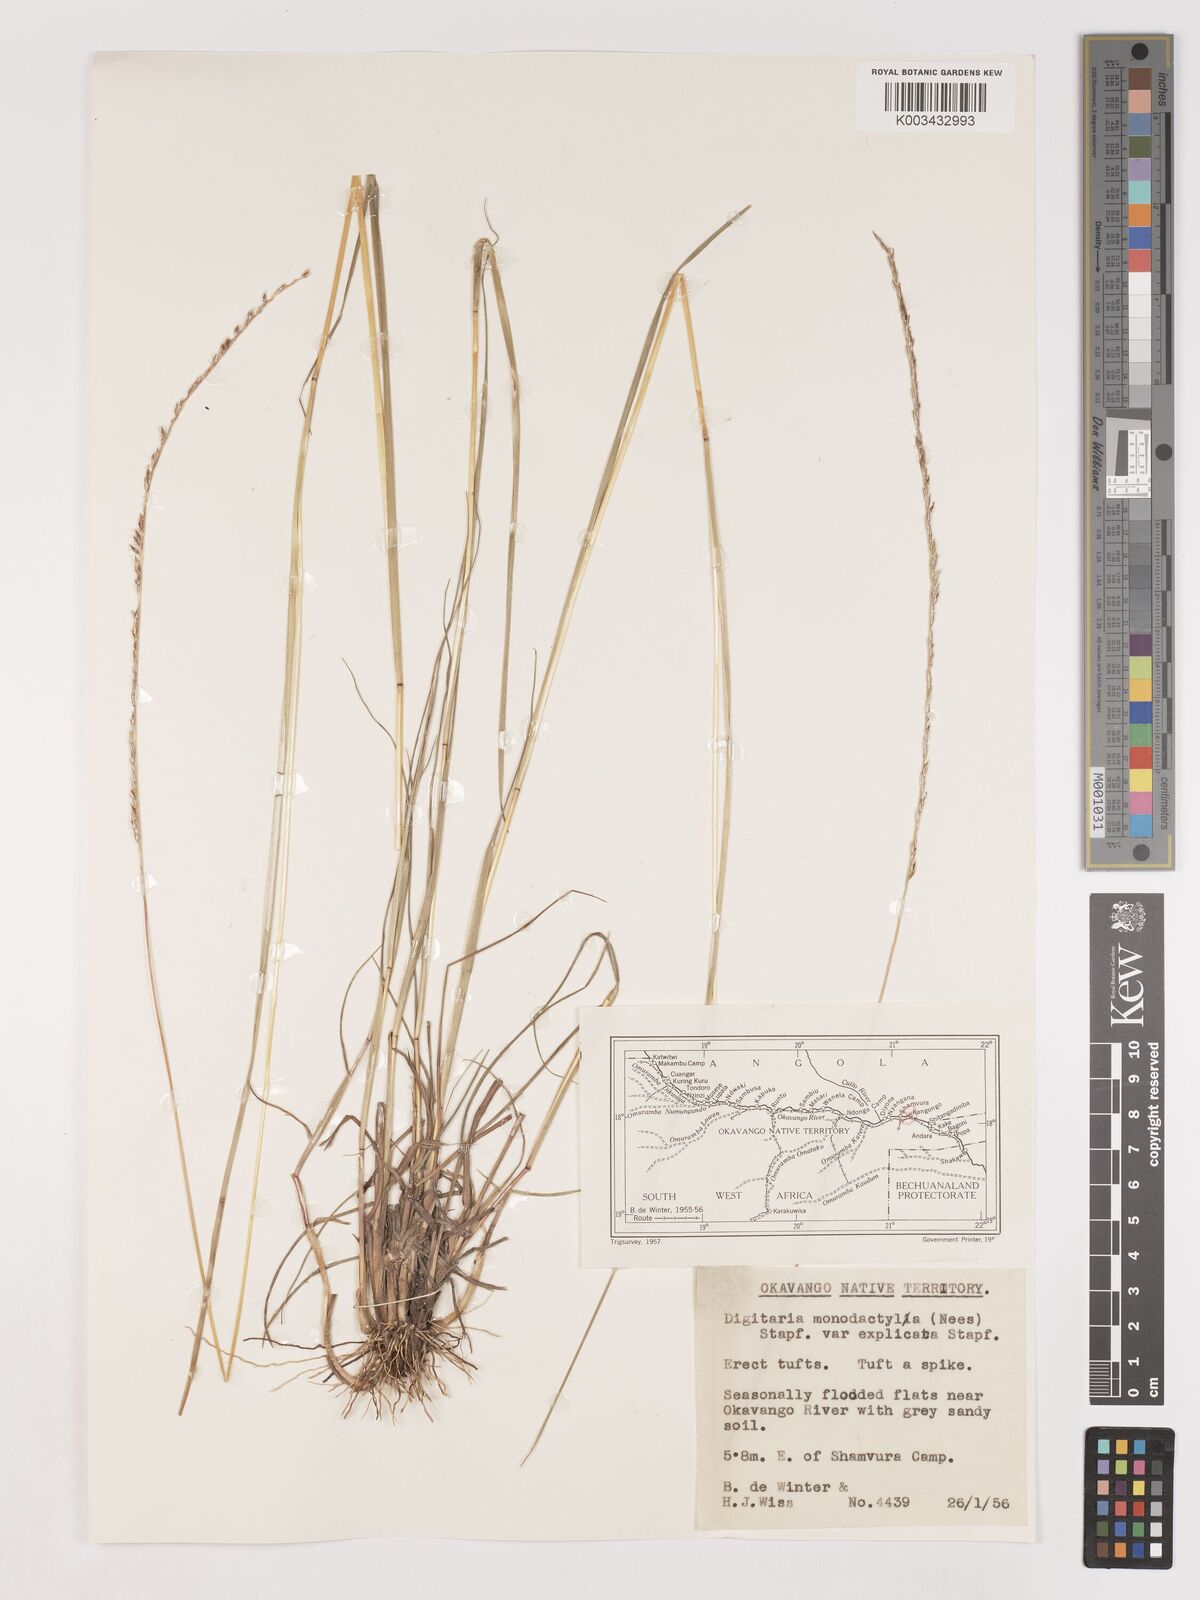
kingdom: Plantae
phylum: Tracheophyta
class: Liliopsida
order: Poales
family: Poaceae
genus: Digitaria
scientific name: Digitaria monodactyla
